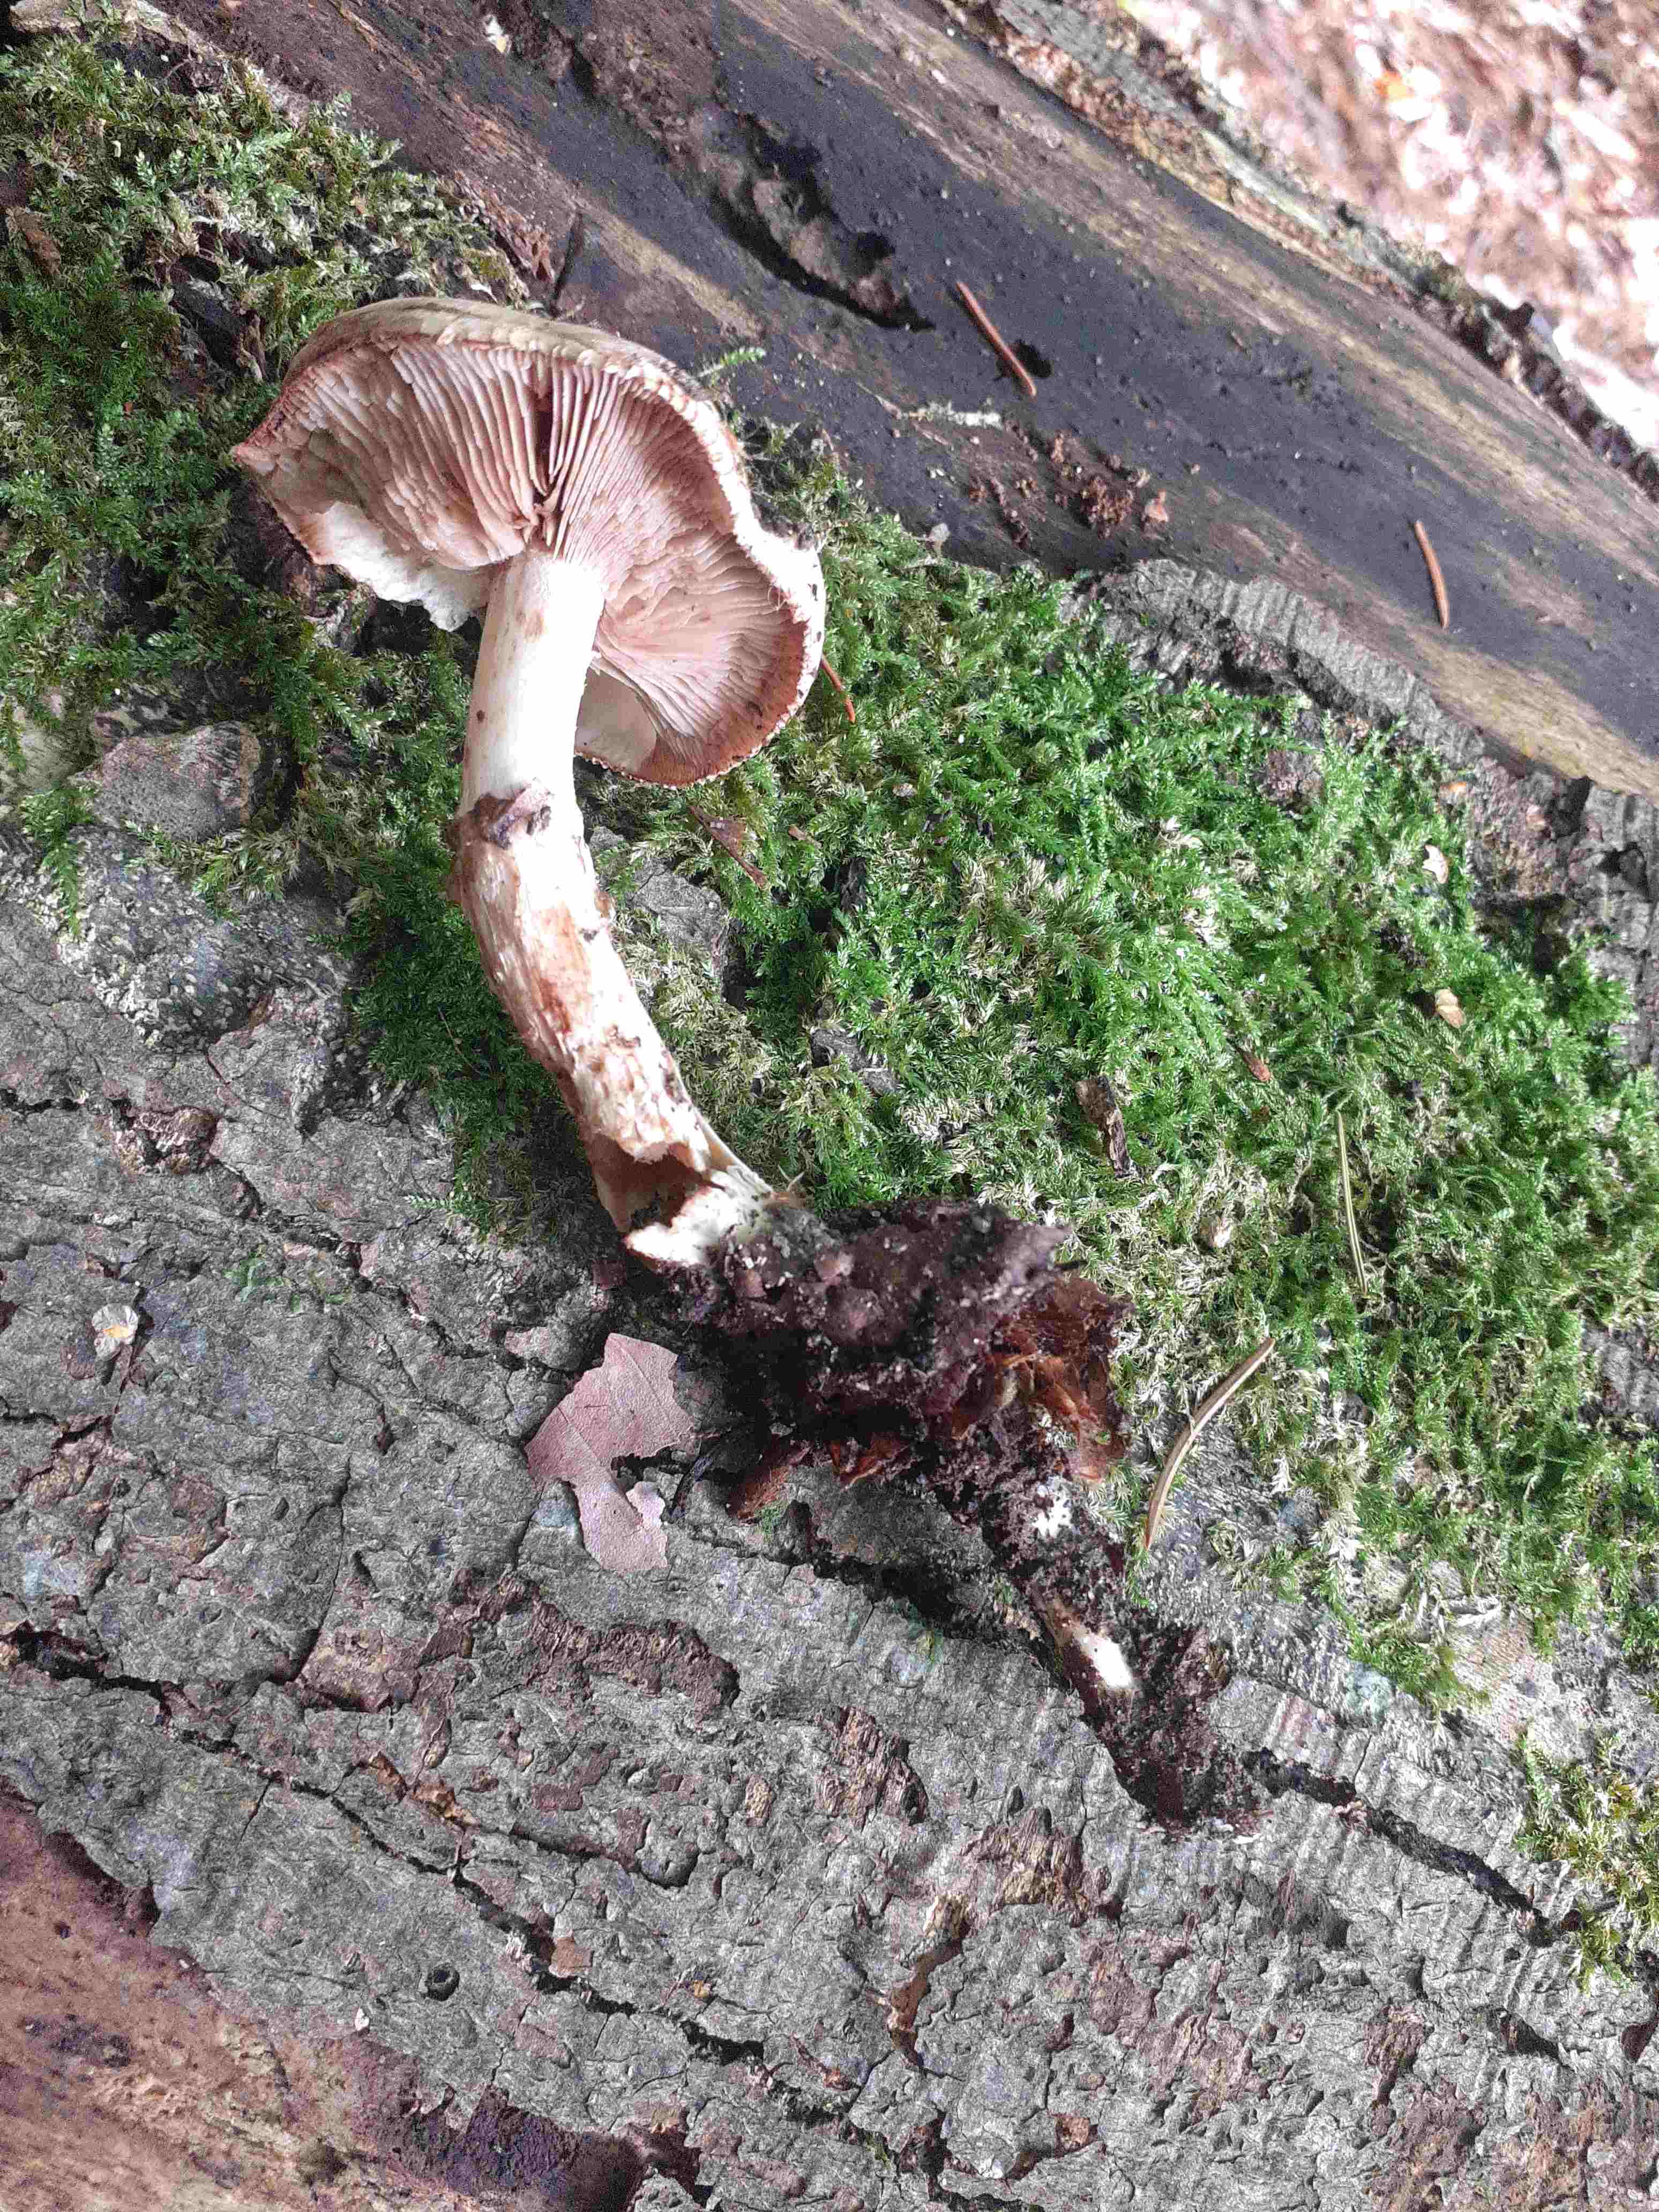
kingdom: Fungi
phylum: Basidiomycota
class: Agaricomycetes
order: Agaricales
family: Hymenogastraceae
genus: Hebeloma
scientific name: Hebeloma radicosum
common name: pælerods-tåreblad
